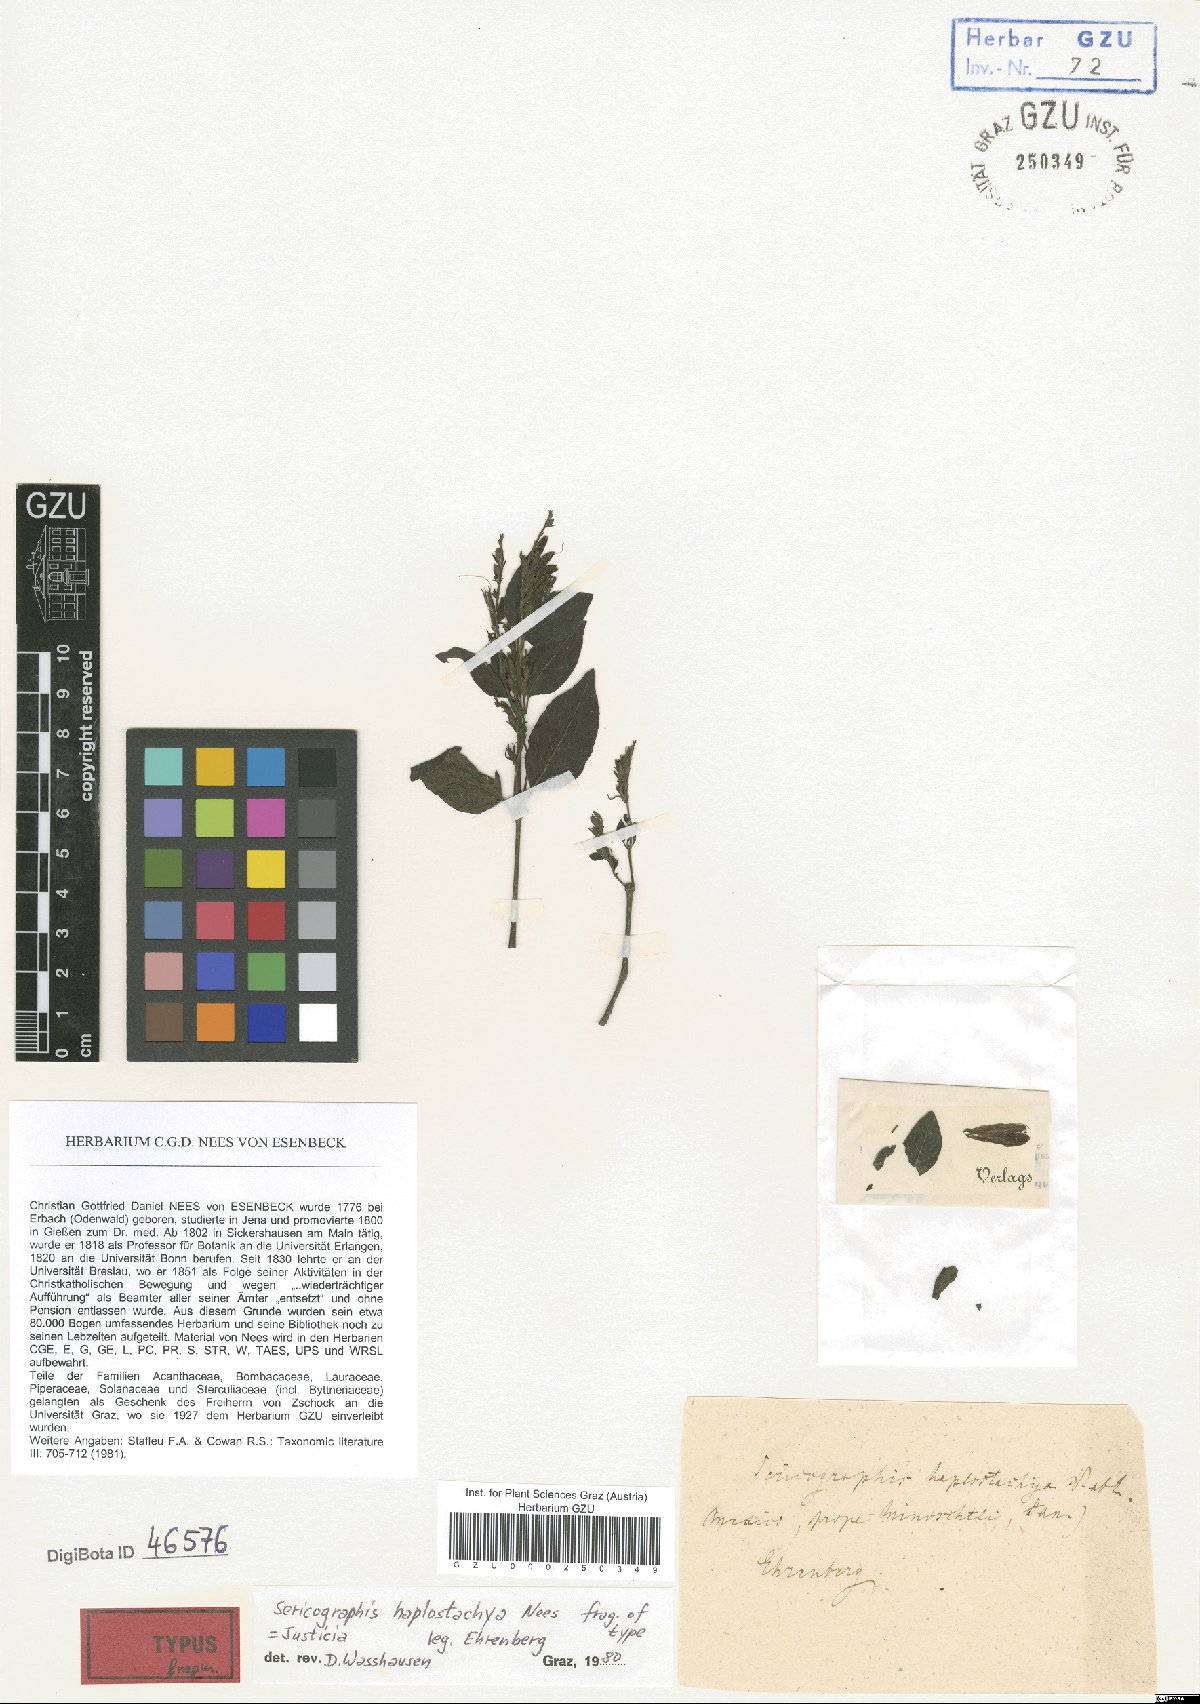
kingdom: Plantae
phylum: Tracheophyta
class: Magnoliopsida
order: Lamiales
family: Acanthaceae
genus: Justicia
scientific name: Justicia leonardii
